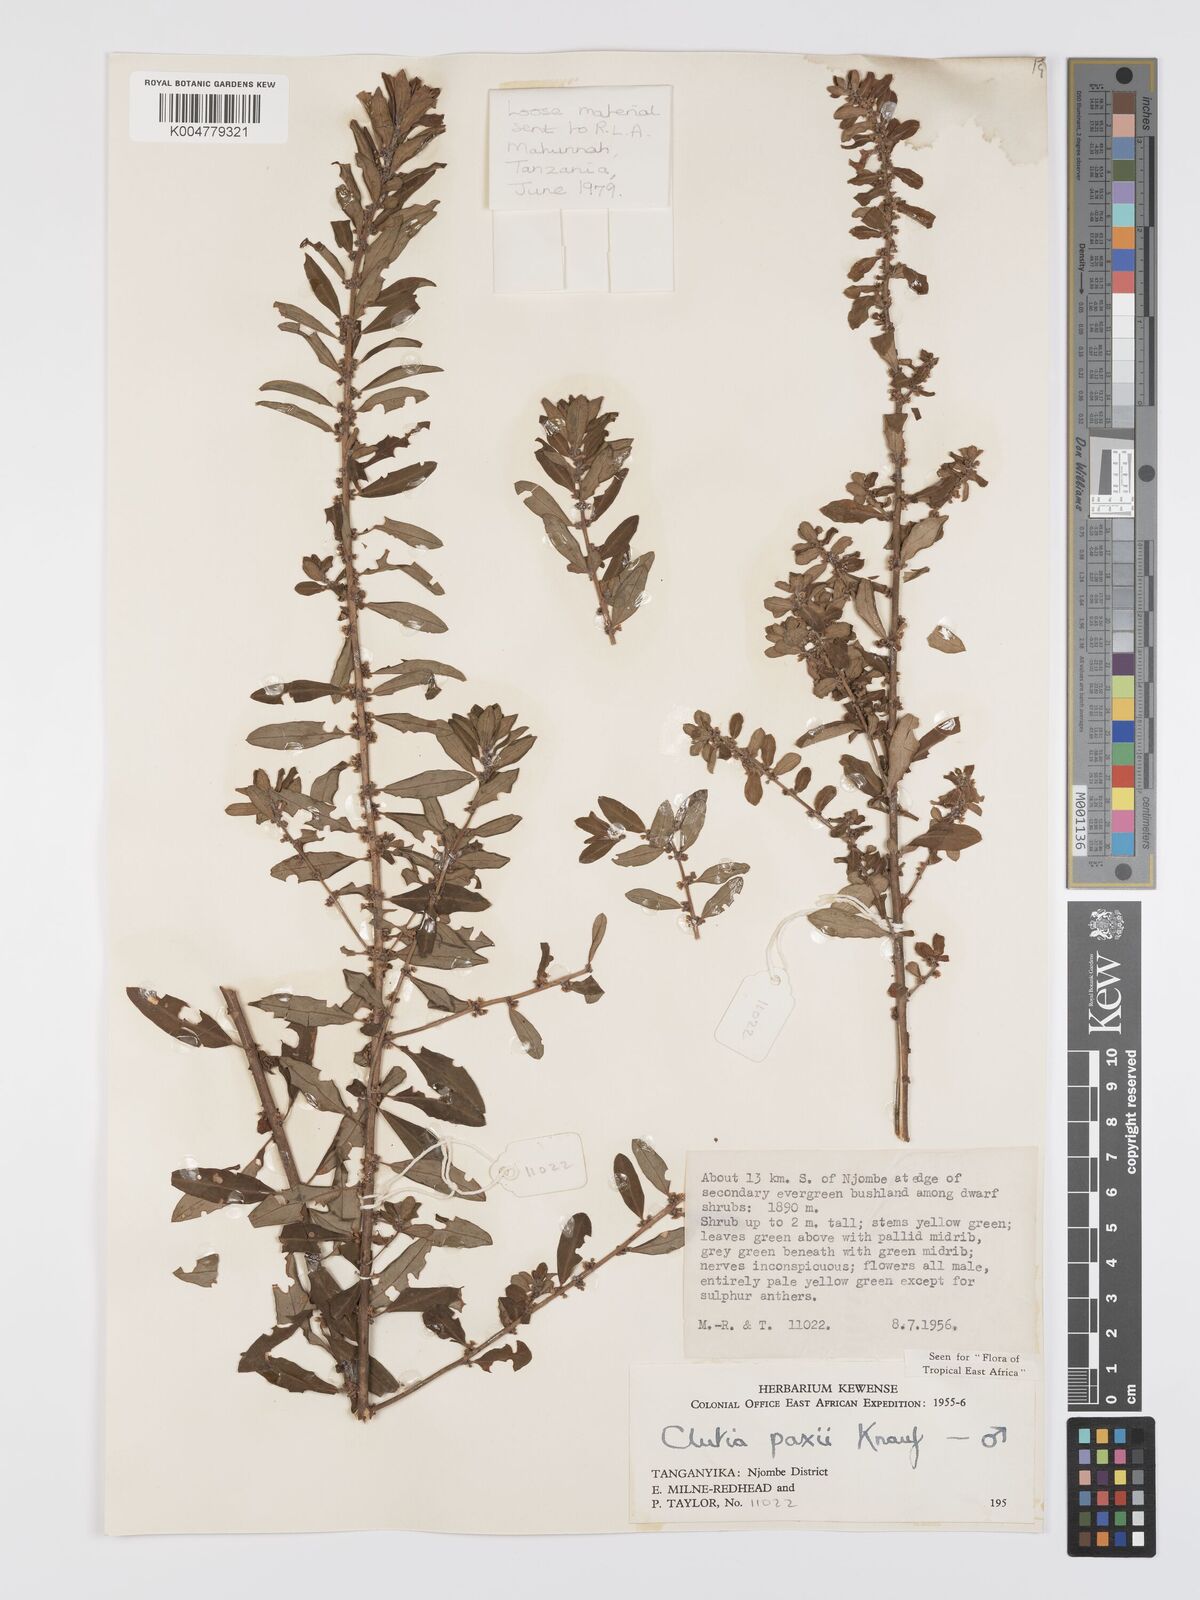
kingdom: Plantae
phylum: Tracheophyta
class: Magnoliopsida
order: Malpighiales
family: Peraceae
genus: Clutia
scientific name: Clutia paxii
